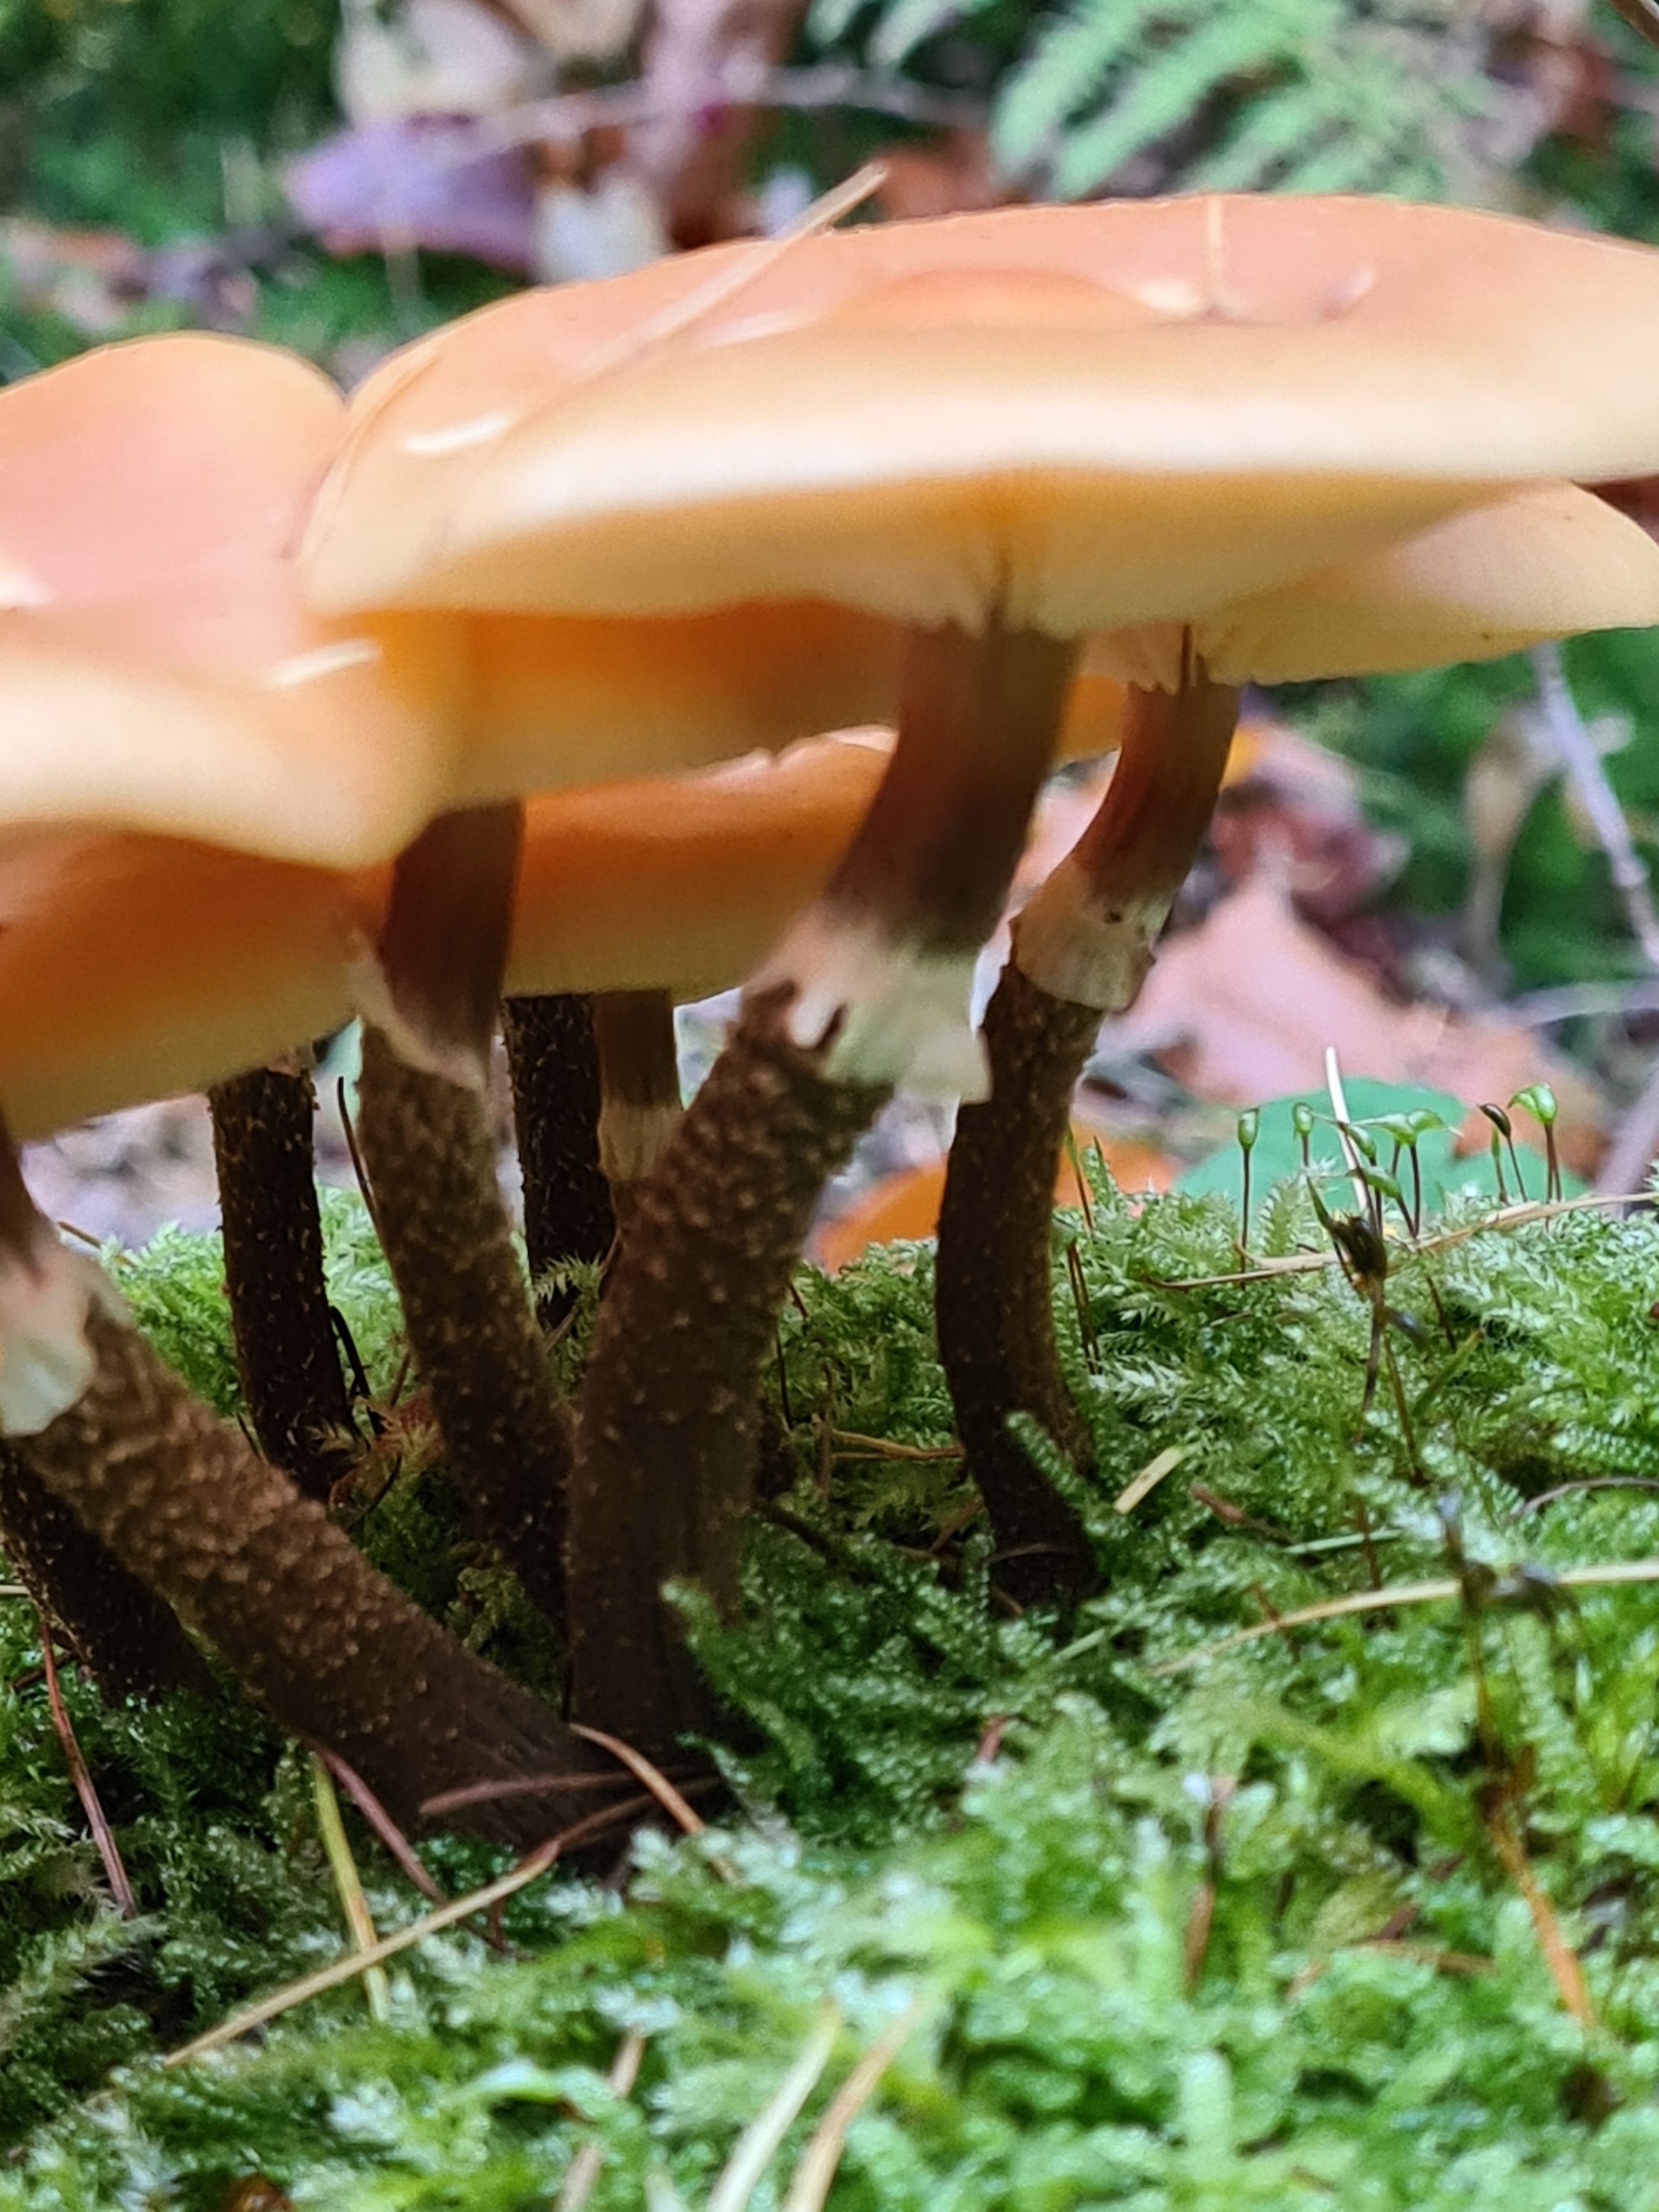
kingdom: Fungi
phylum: Basidiomycota
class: Agaricomycetes
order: Agaricales
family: Strophariaceae
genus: Kuehneromyces
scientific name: Kuehneromyces mutabilis
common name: Foranderlig skælhat
